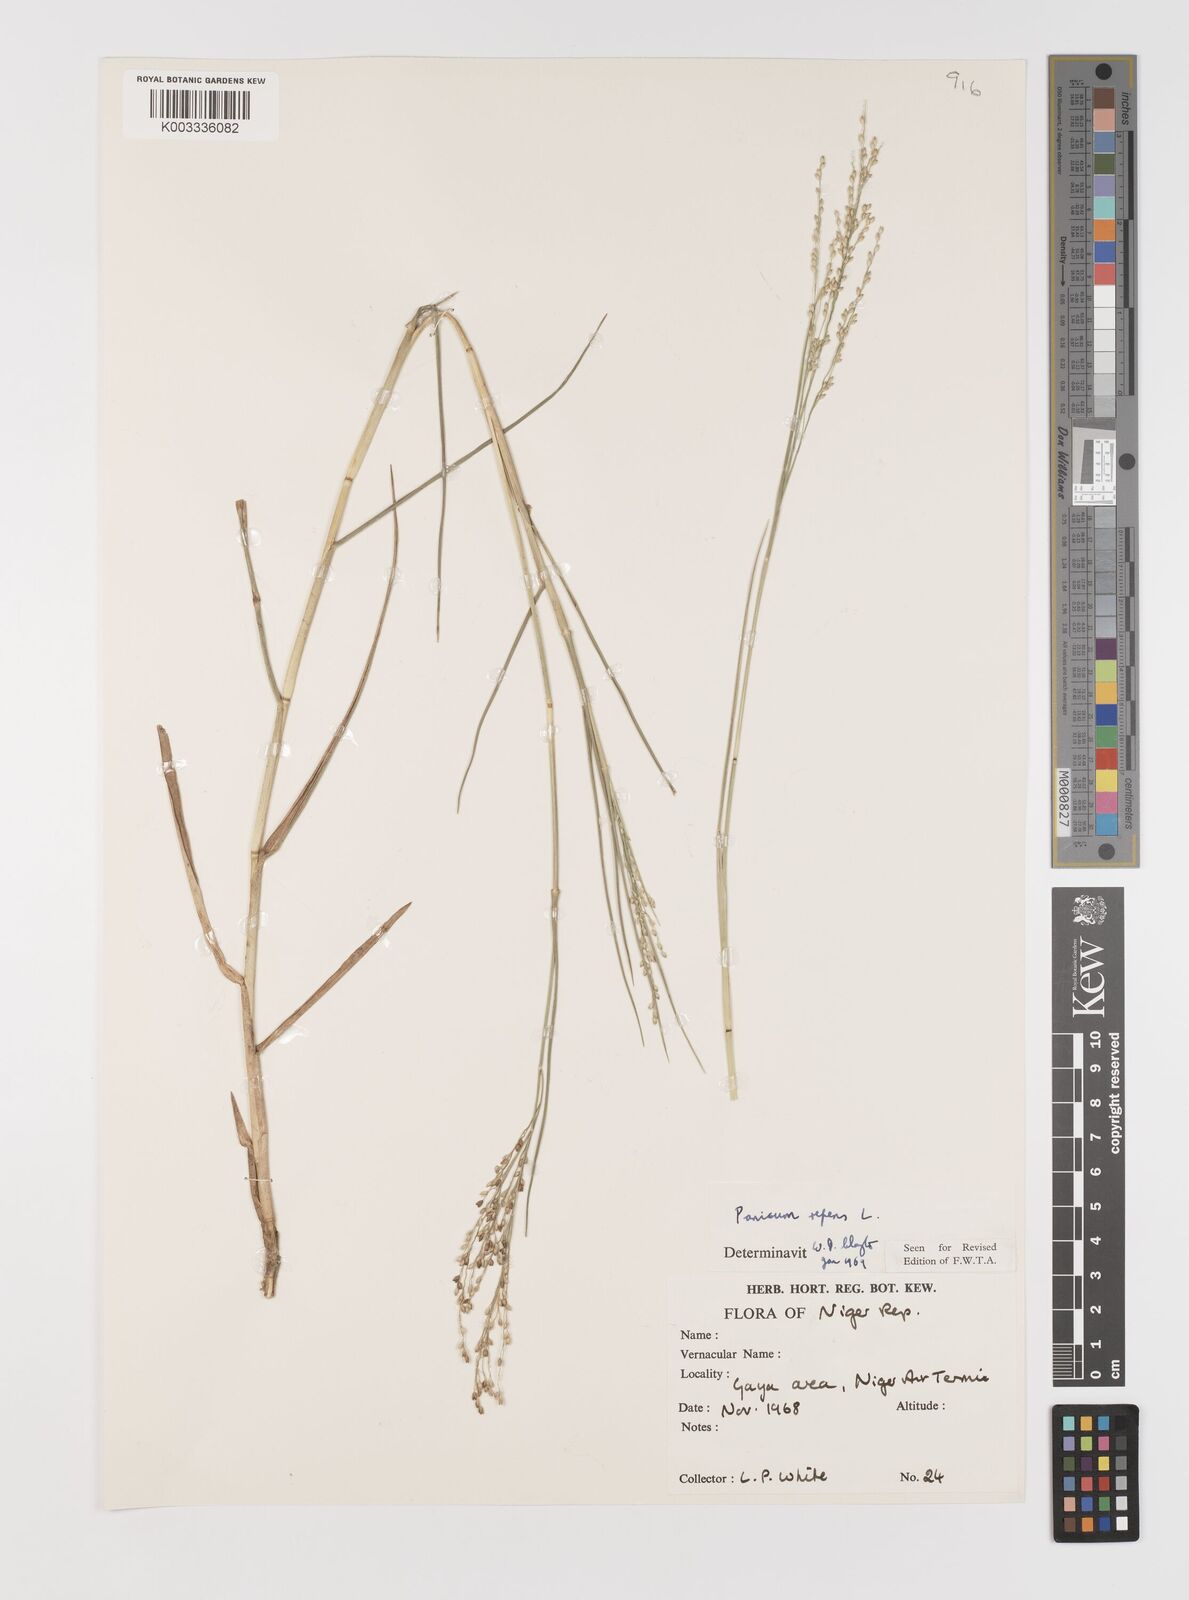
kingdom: Plantae
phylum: Tracheophyta
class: Liliopsida
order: Poales
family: Poaceae
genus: Panicum
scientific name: Panicum repens
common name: Torpedo grass
